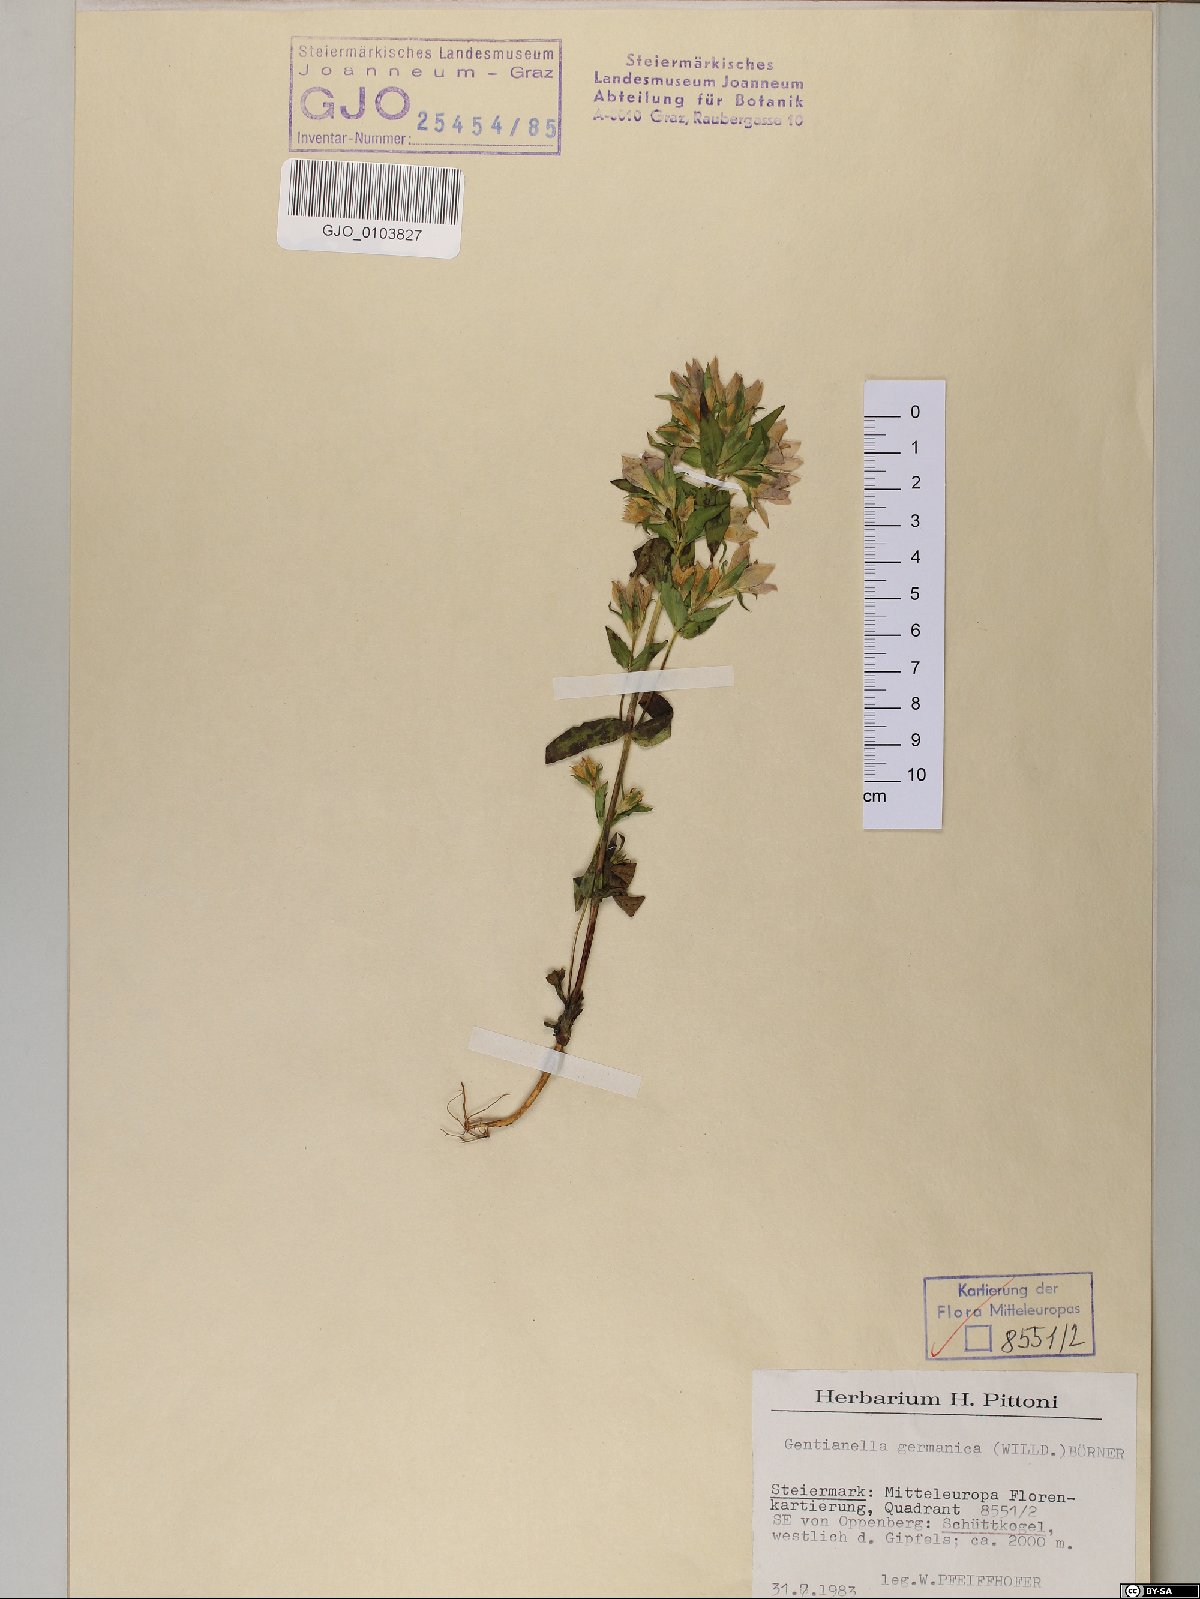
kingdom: Plantae
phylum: Tracheophyta
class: Magnoliopsida
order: Gentianales
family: Gentianaceae
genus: Gentianella
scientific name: Gentianella germanica
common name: Chiltern-gentian
